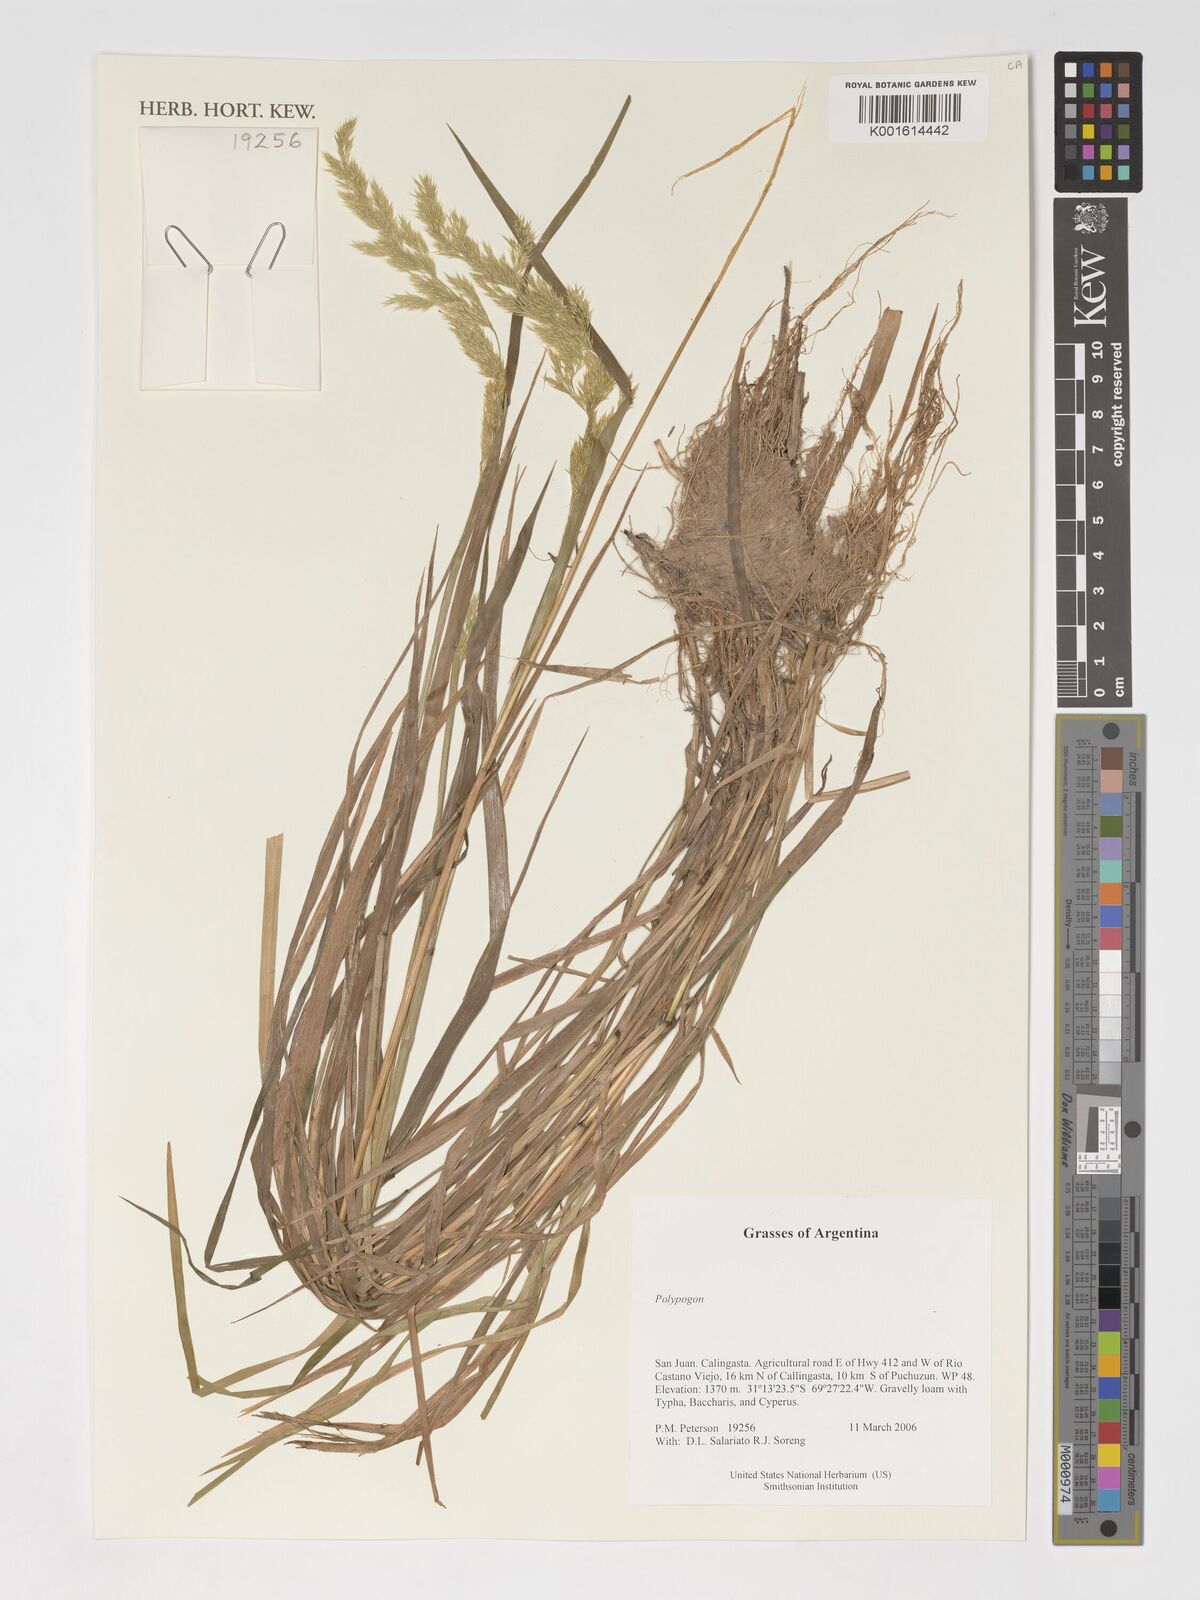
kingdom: Plantae
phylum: Tracheophyta
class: Liliopsida
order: Poales
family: Poaceae
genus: Polypogon
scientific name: Polypogon
